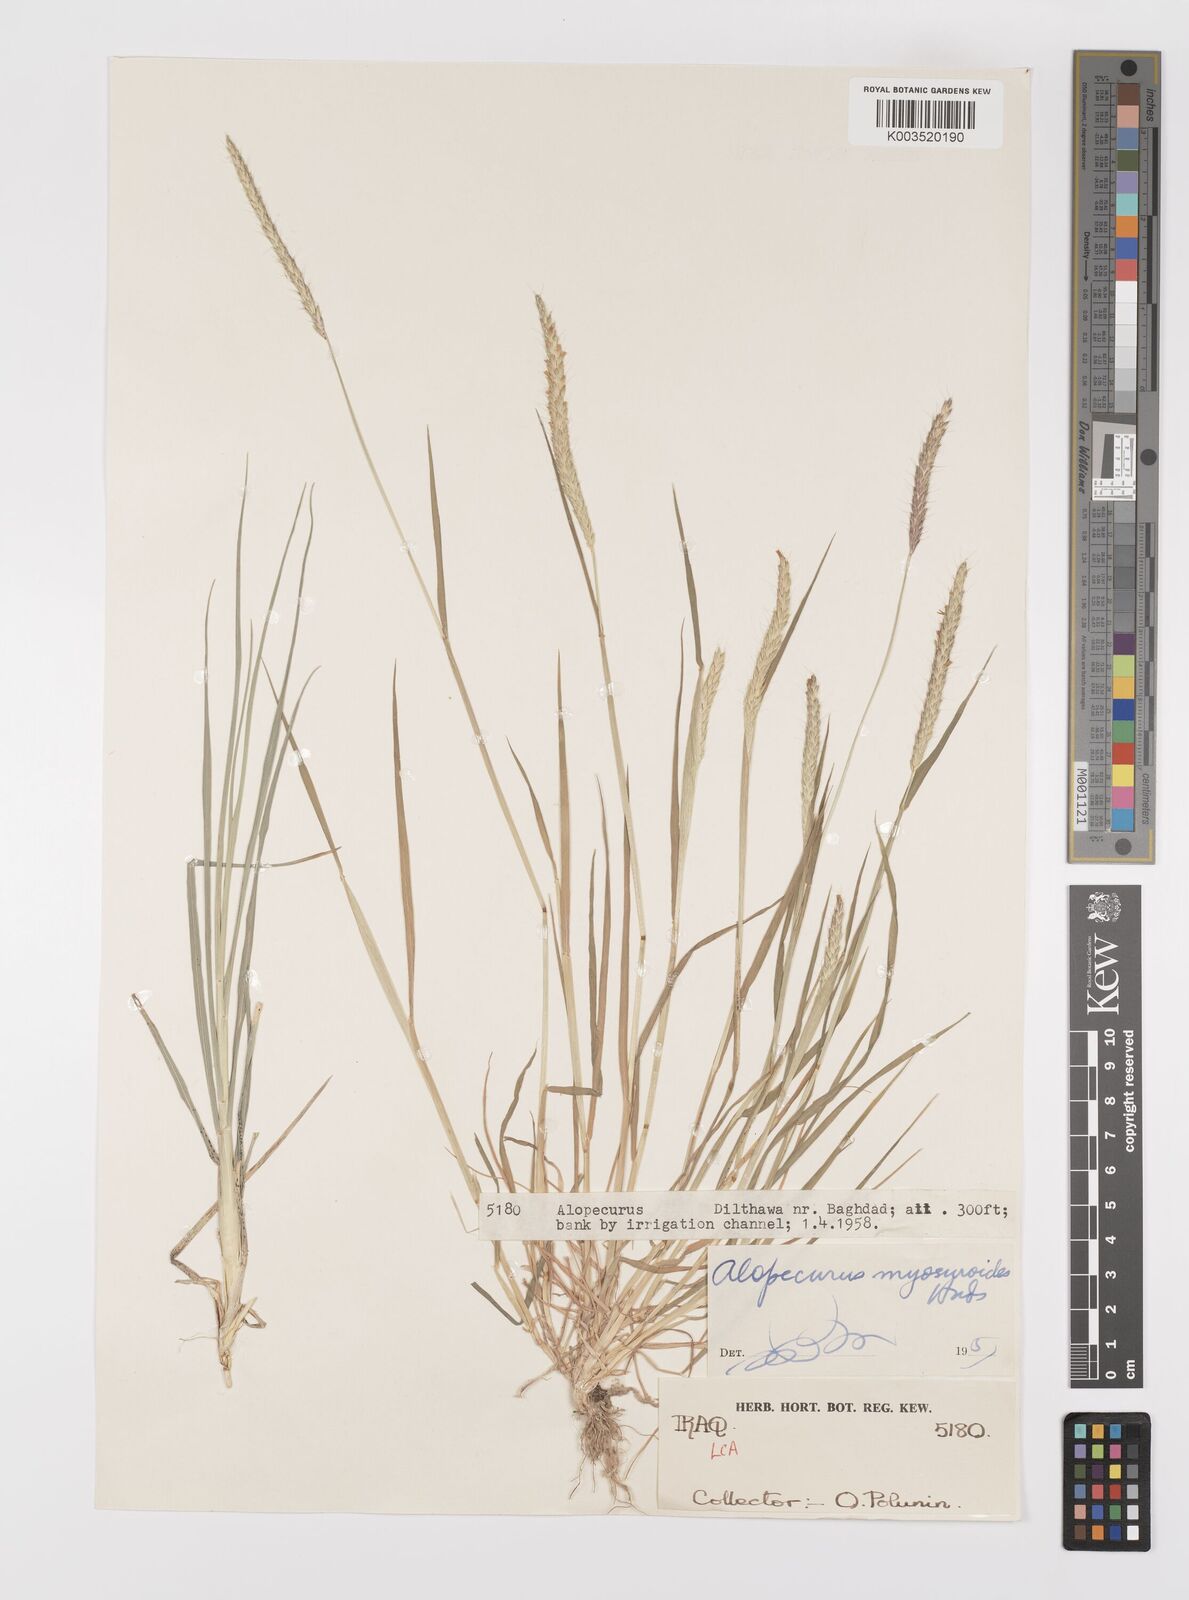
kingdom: Plantae
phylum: Tracheophyta
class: Liliopsida
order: Poales
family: Poaceae
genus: Alopecurus
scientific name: Alopecurus myosuroides
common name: Black-grass
